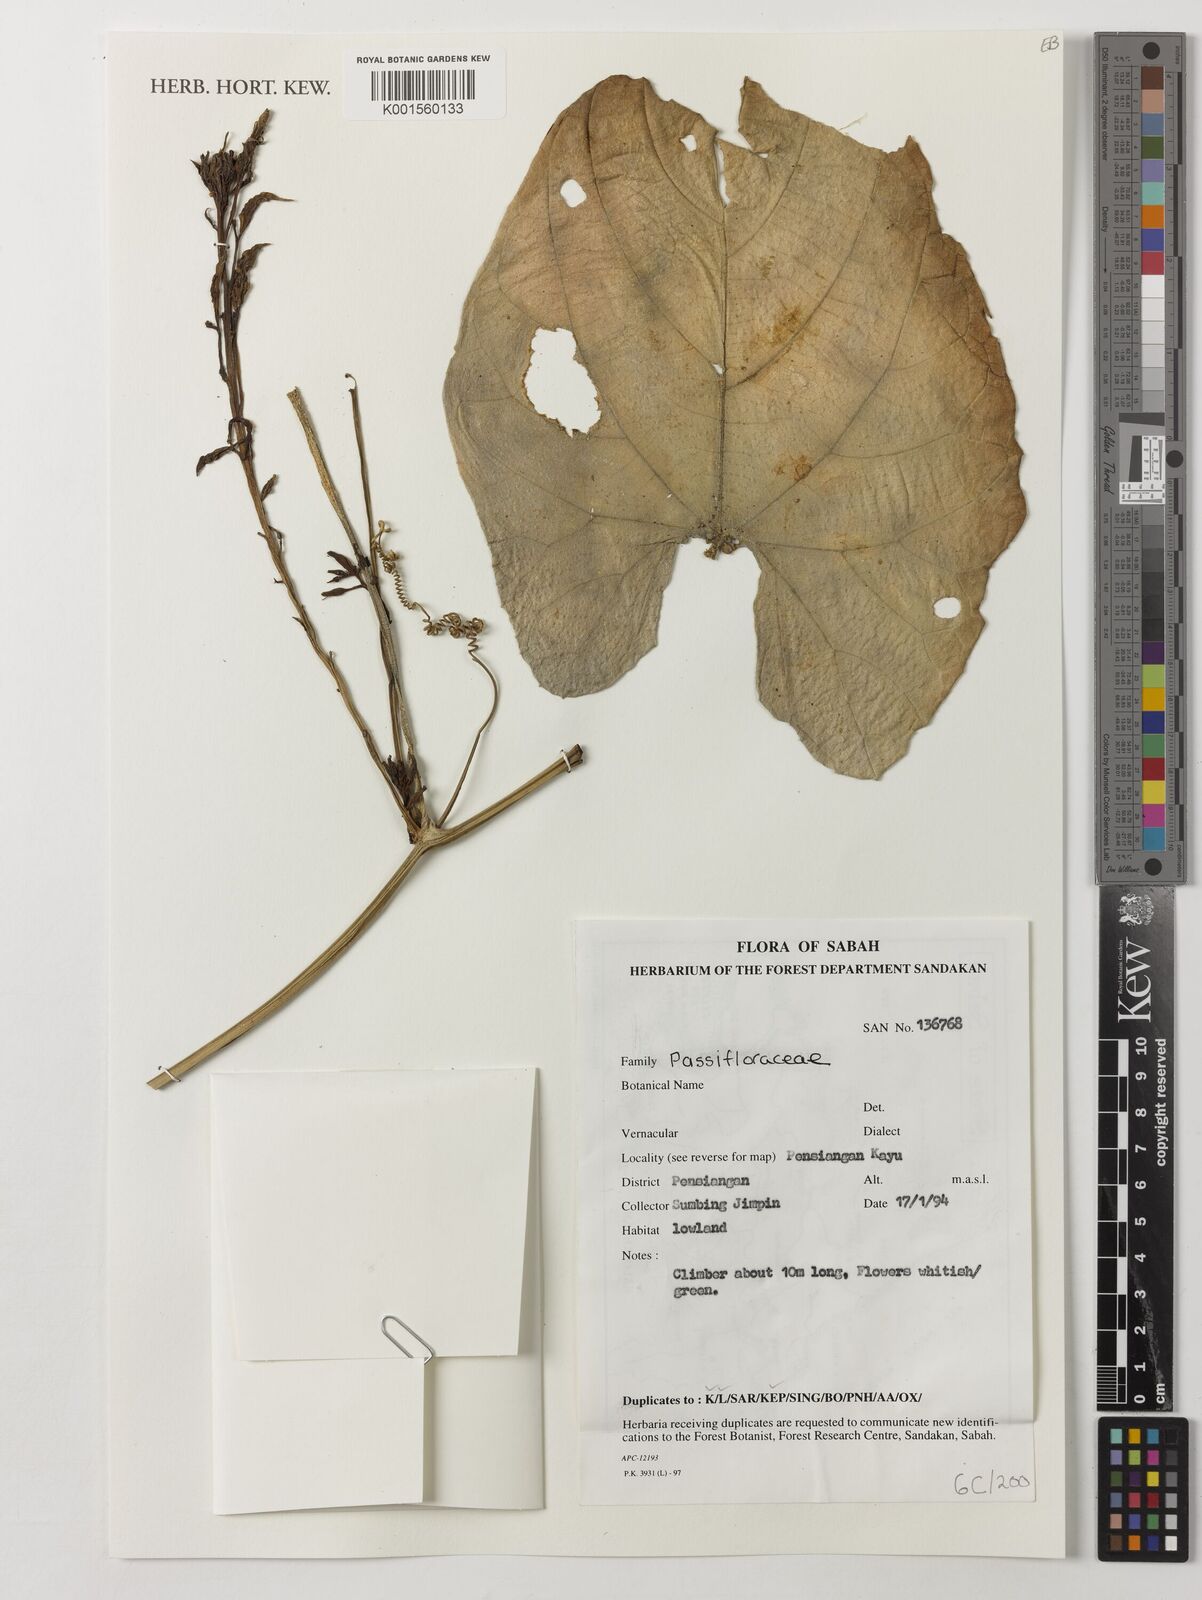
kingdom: Plantae
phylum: Tracheophyta
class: Magnoliopsida
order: Malpighiales
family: Passifloraceae
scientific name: Passifloraceae
